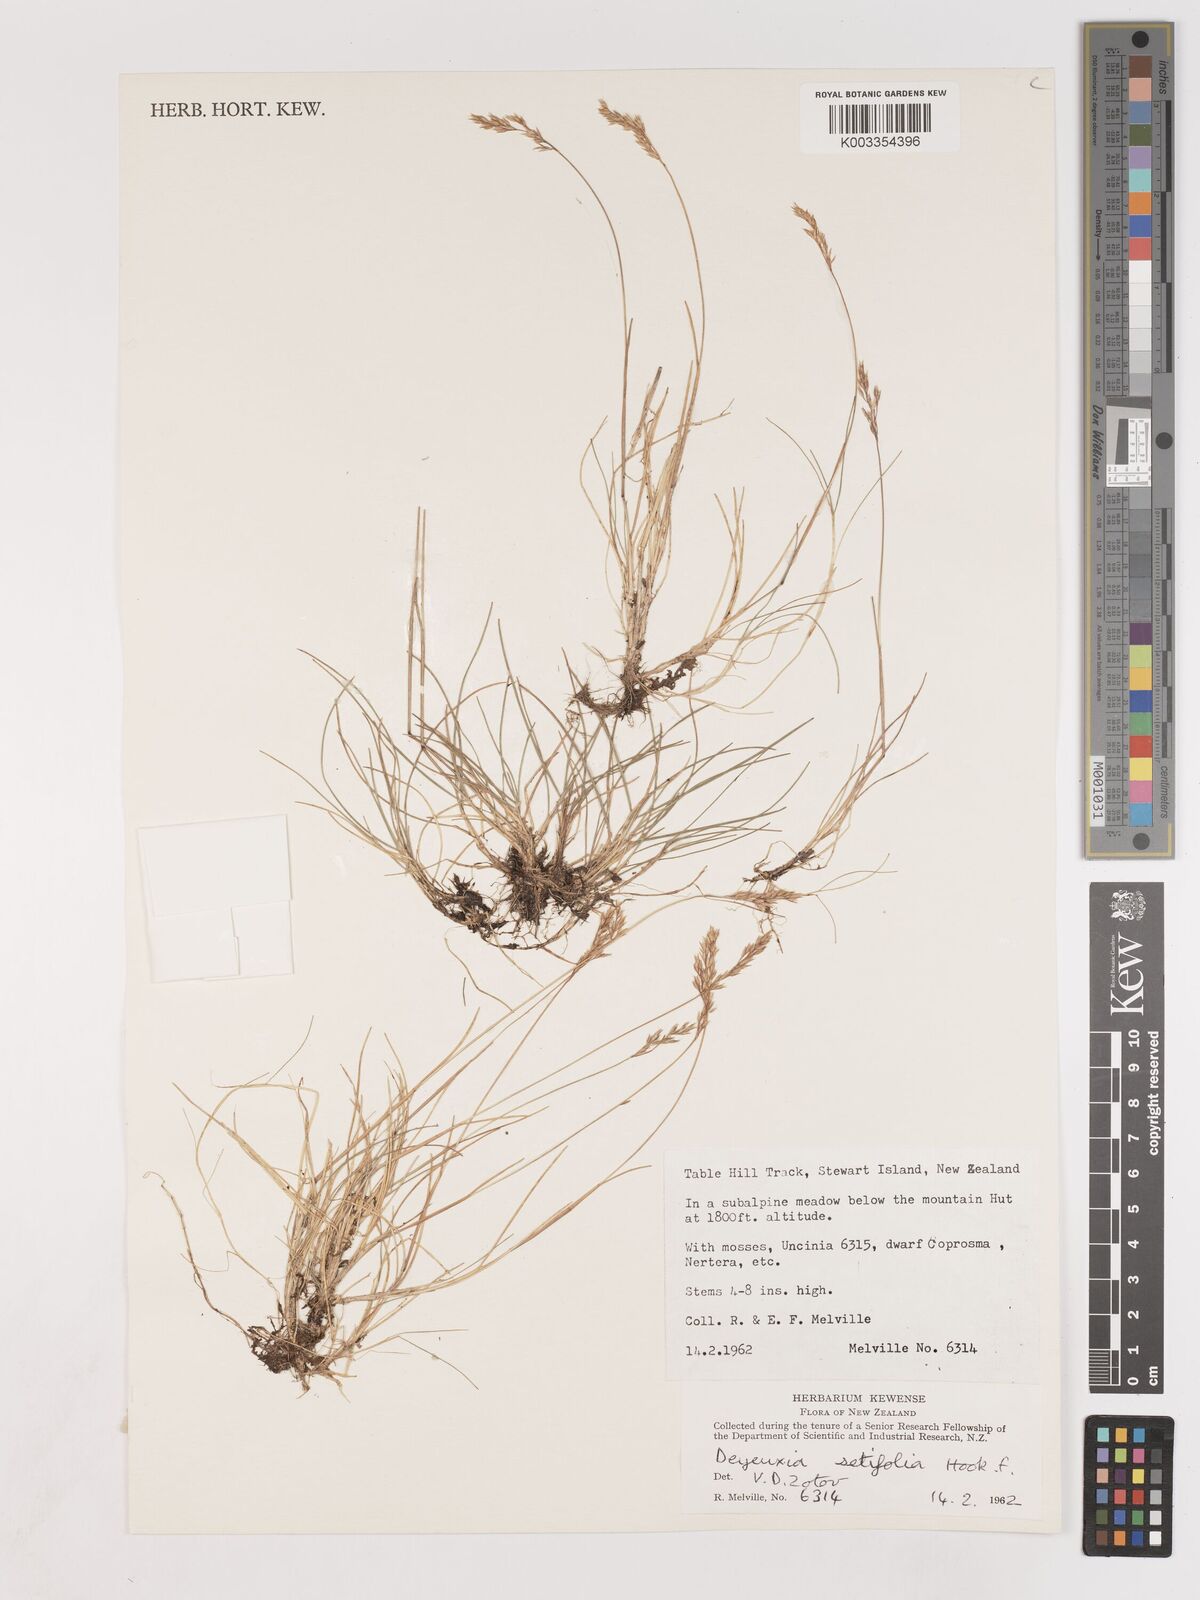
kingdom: Plantae
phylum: Tracheophyta
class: Liliopsida
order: Poales
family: Poaceae
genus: Agrostis
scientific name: Agrostis aucklandica
